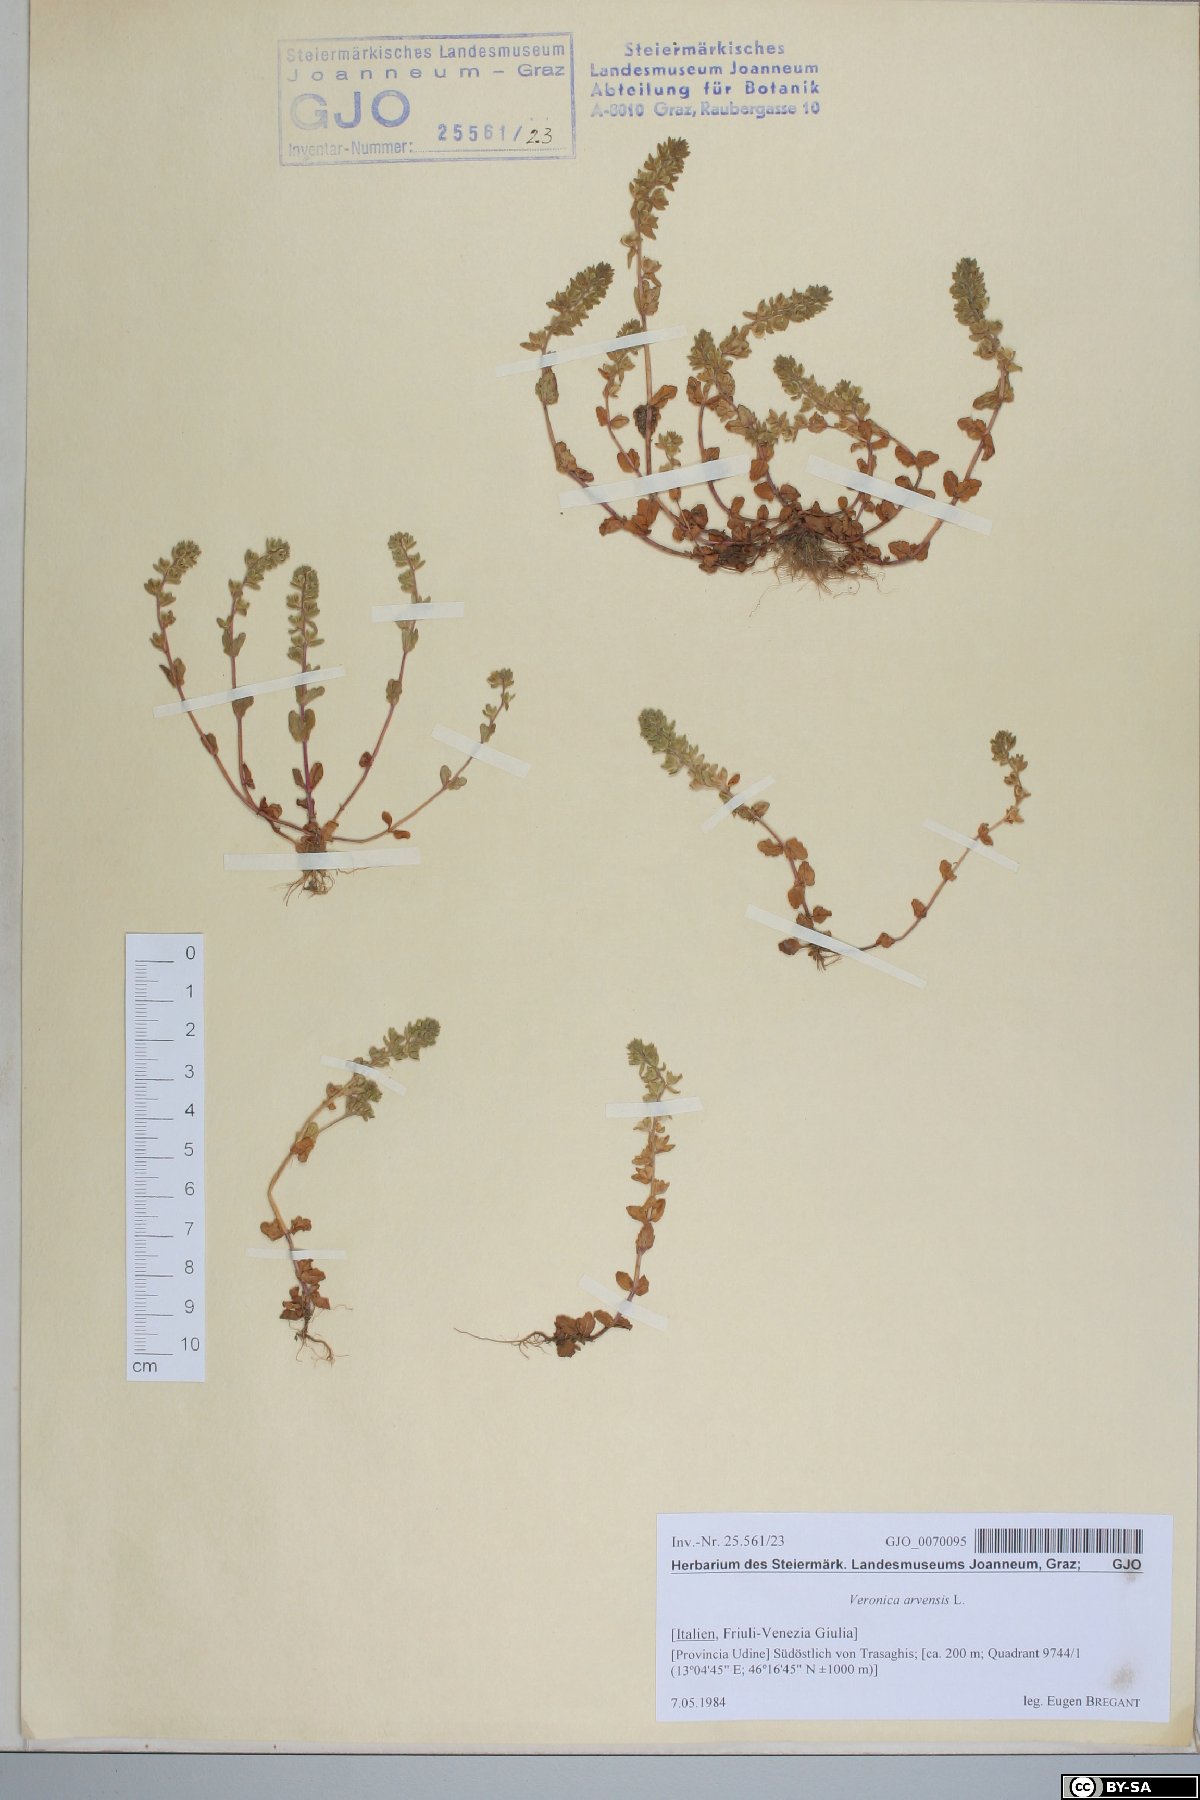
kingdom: Plantae
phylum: Tracheophyta
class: Magnoliopsida
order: Lamiales
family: Plantaginaceae
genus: Veronica
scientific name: Veronica arvensis
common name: Corn speedwell
